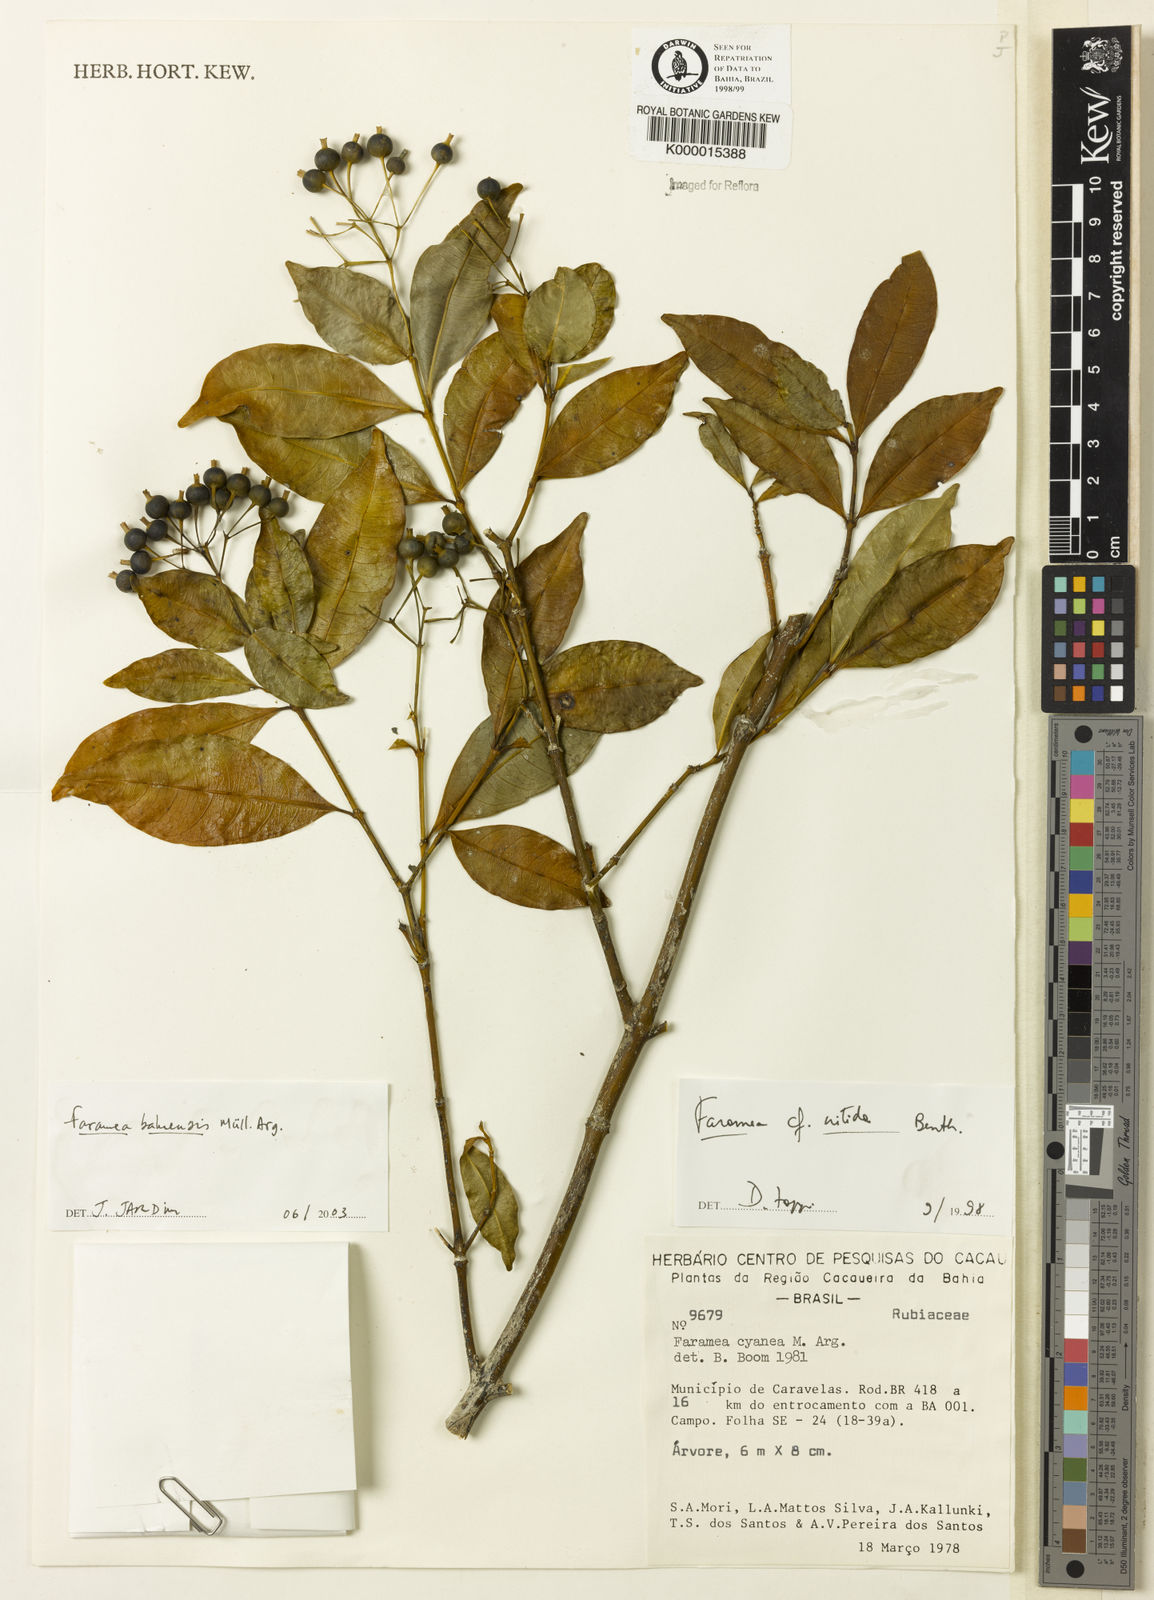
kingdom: Plantae
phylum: Tracheophyta
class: Magnoliopsida
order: Gentianales
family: Rubiaceae
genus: Faramea
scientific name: Faramea
